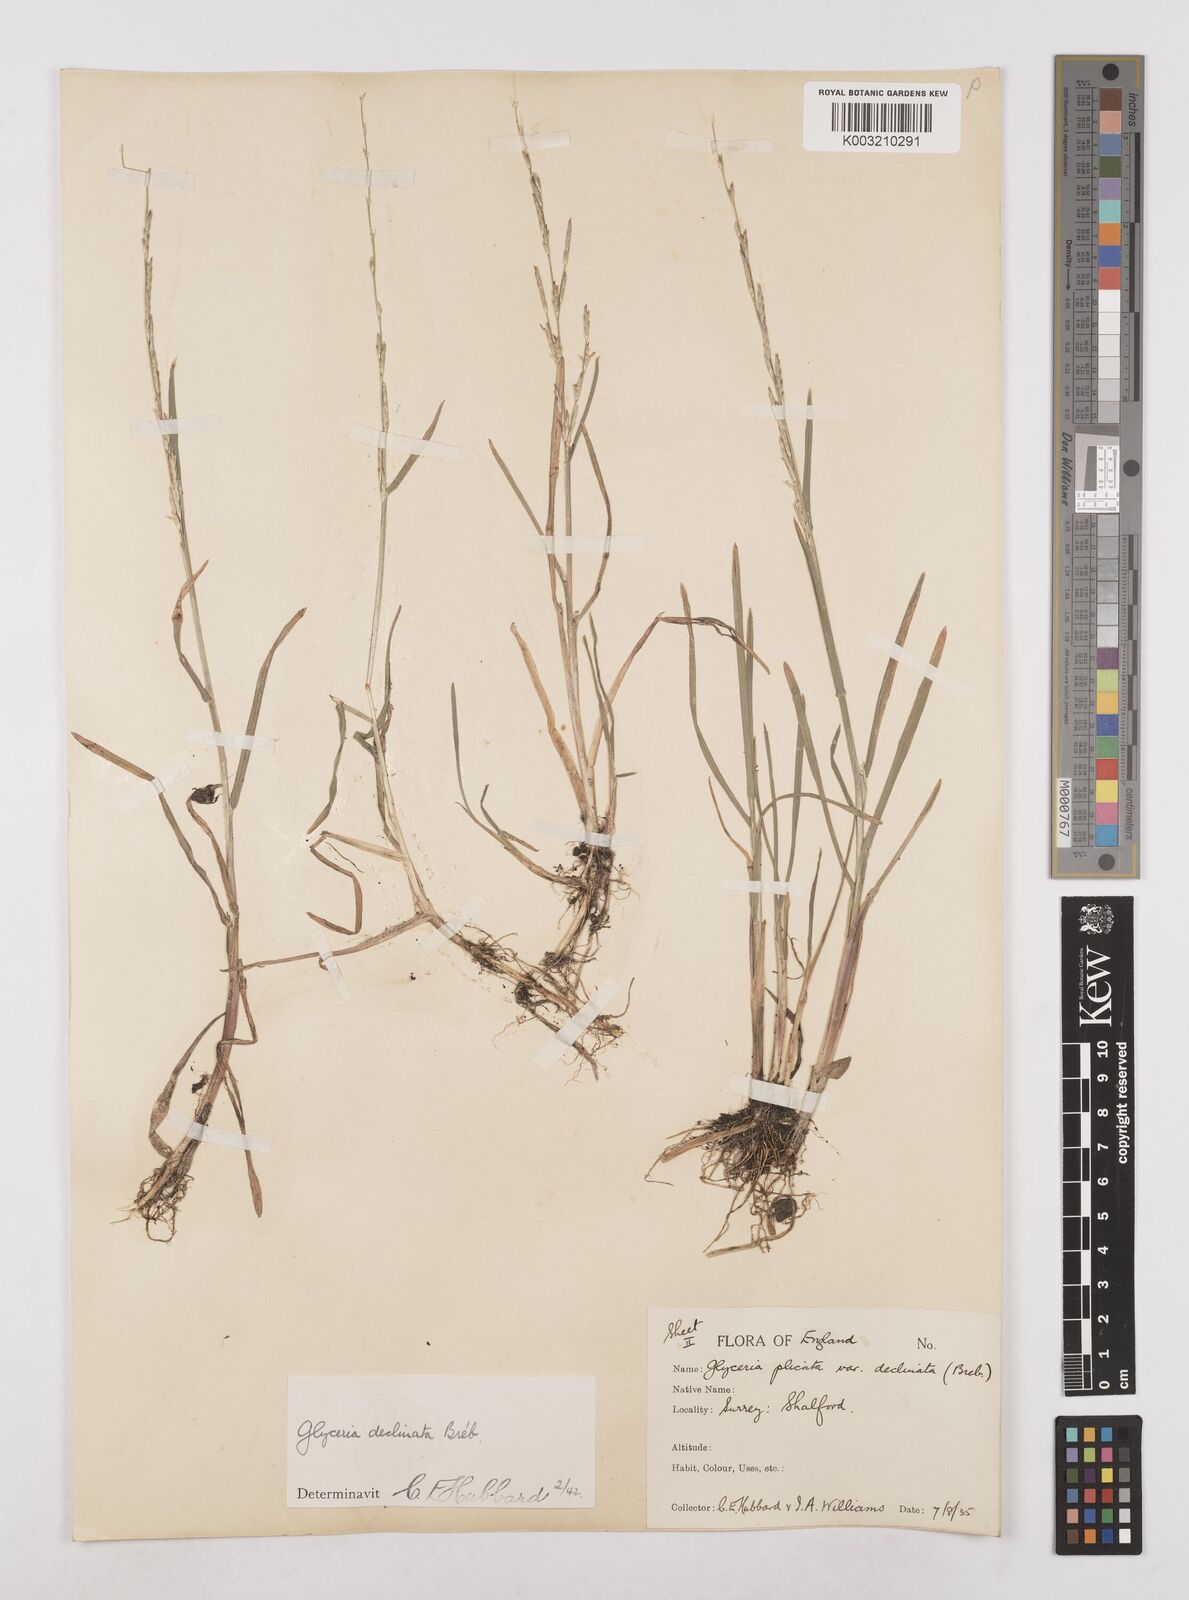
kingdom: Plantae
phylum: Tracheophyta
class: Liliopsida
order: Poales
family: Poaceae
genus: Glyceria
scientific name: Glyceria declinata
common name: Small sweet-grass
